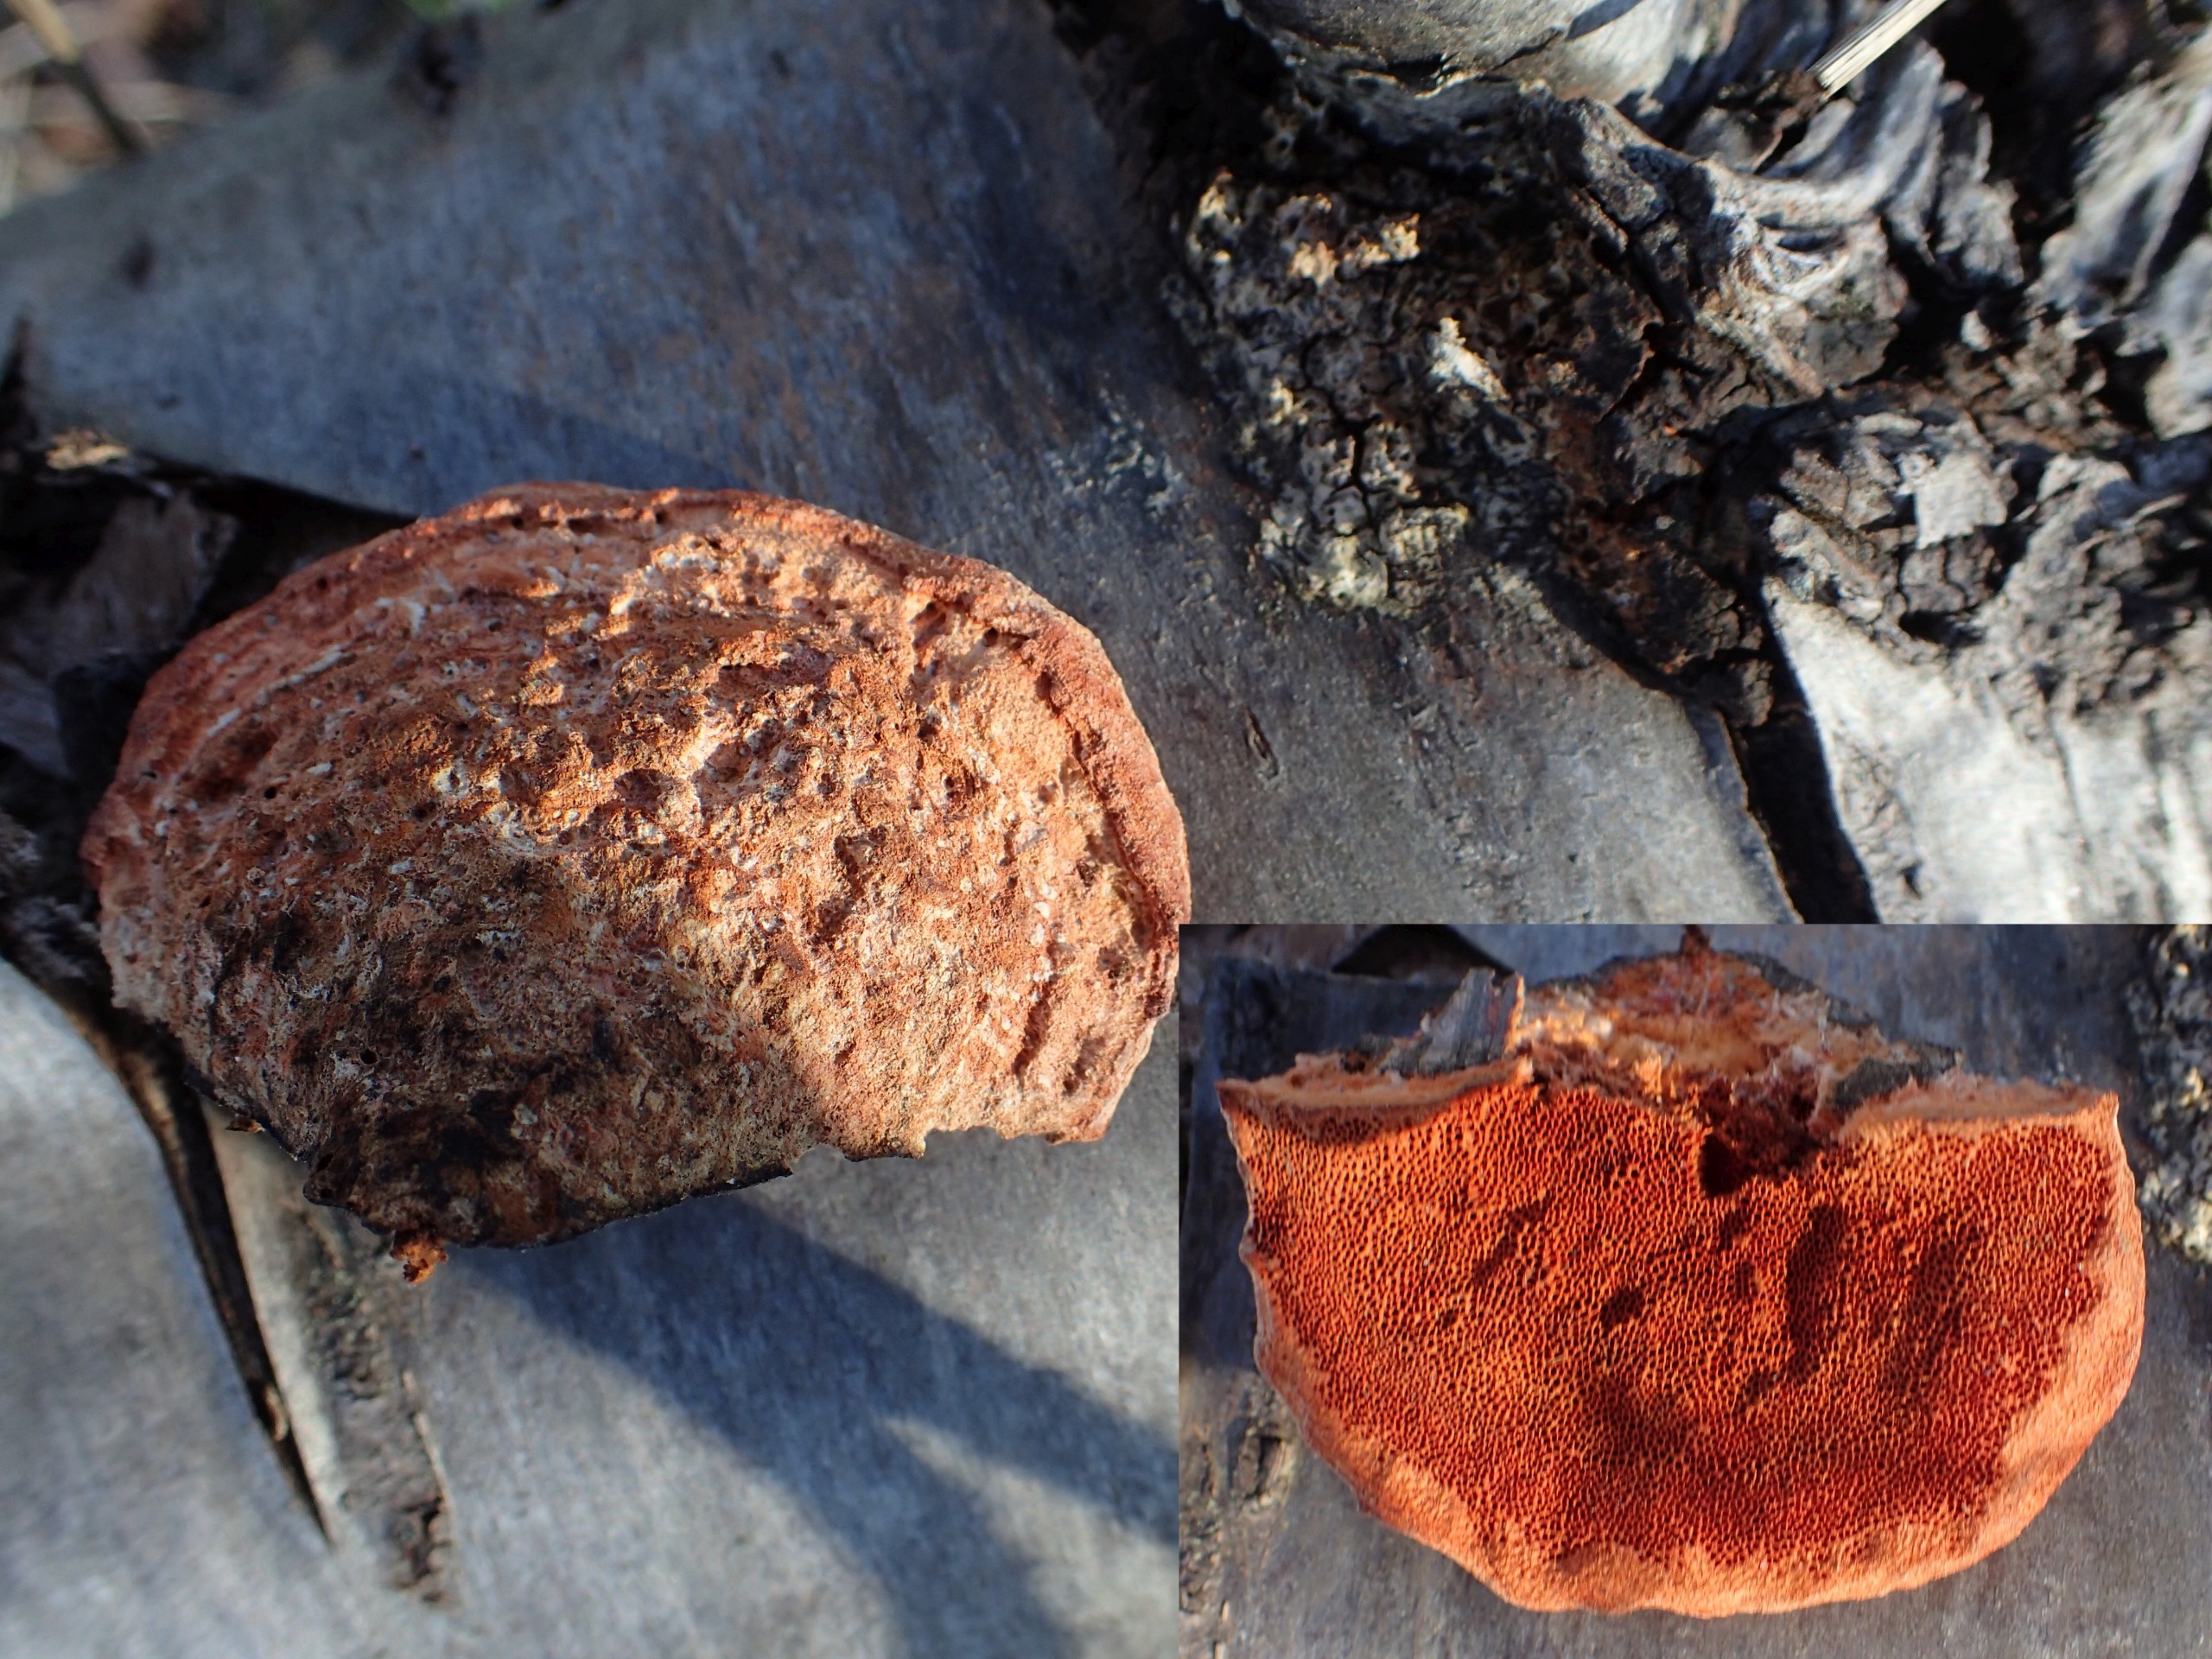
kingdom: Fungi
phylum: Basidiomycota
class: Agaricomycetes
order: Polyporales
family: Polyporaceae
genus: Trametes
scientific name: Trametes cinnabarina
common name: Cinnoberporesvamp
